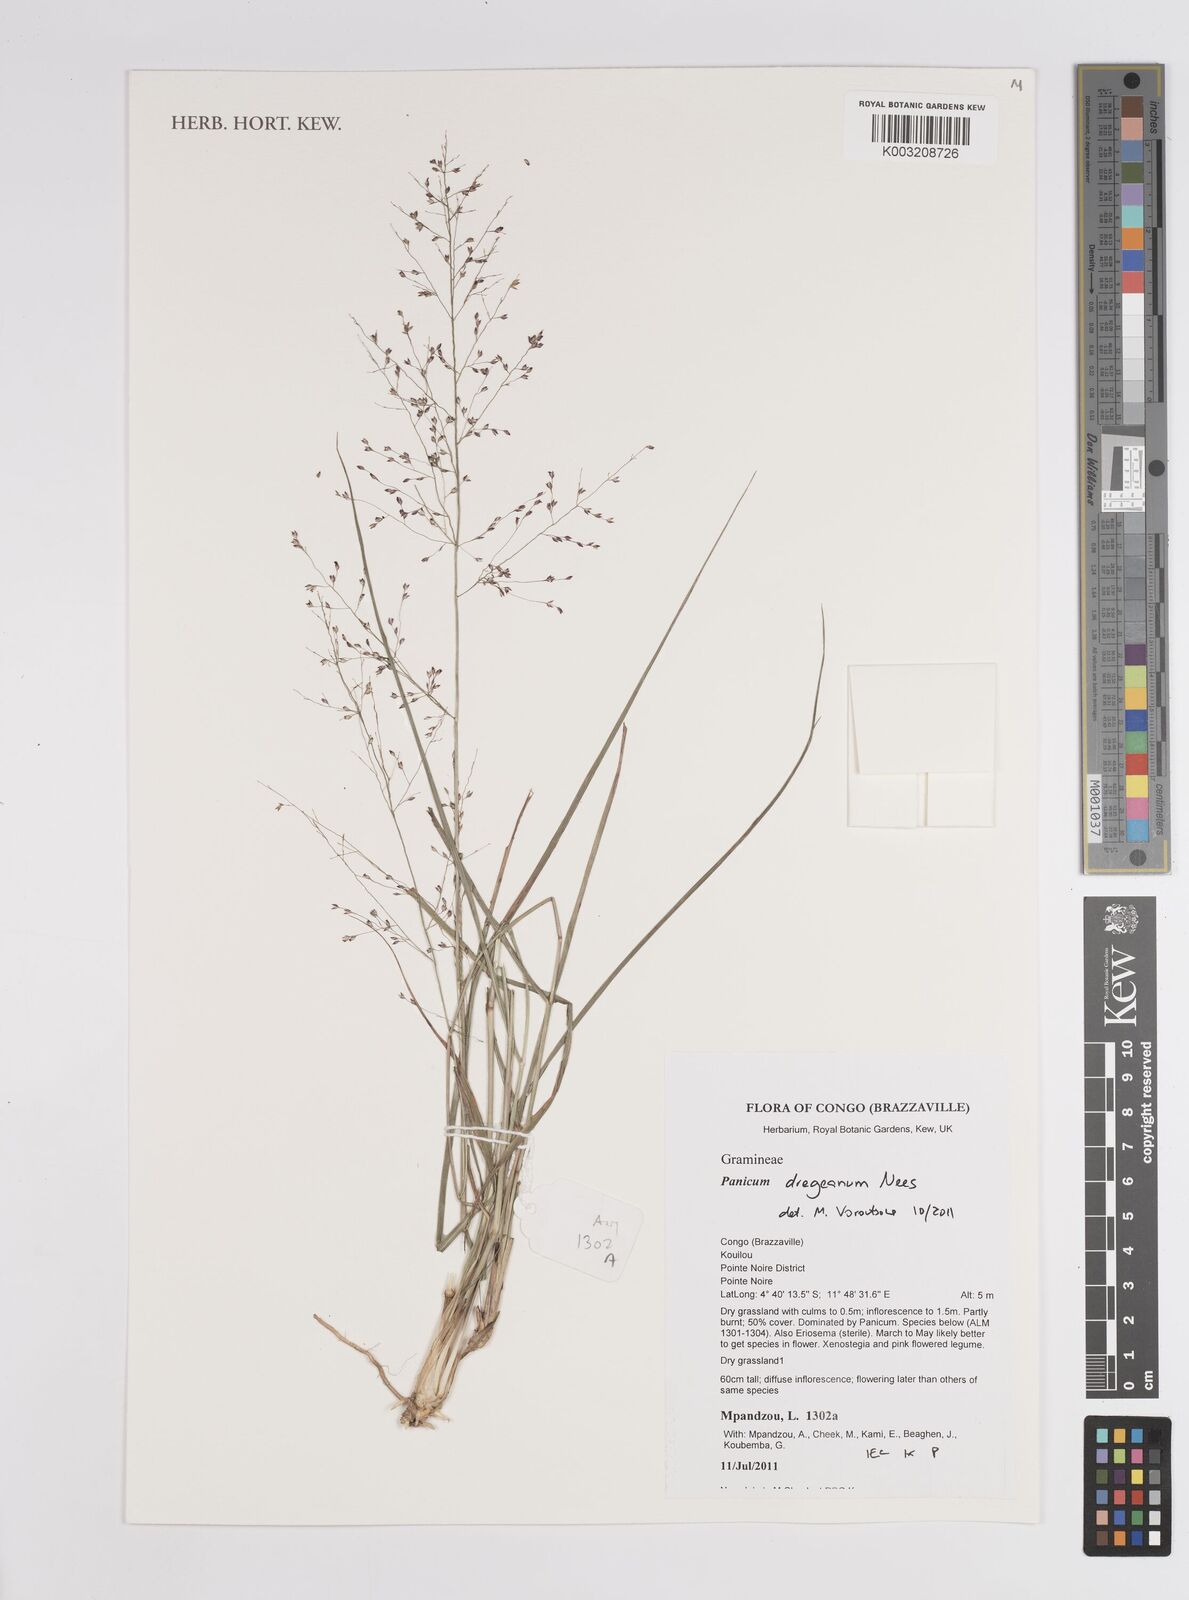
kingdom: Plantae
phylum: Tracheophyta
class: Liliopsida
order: Poales
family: Poaceae
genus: Panicum
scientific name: Panicum dregeanum
